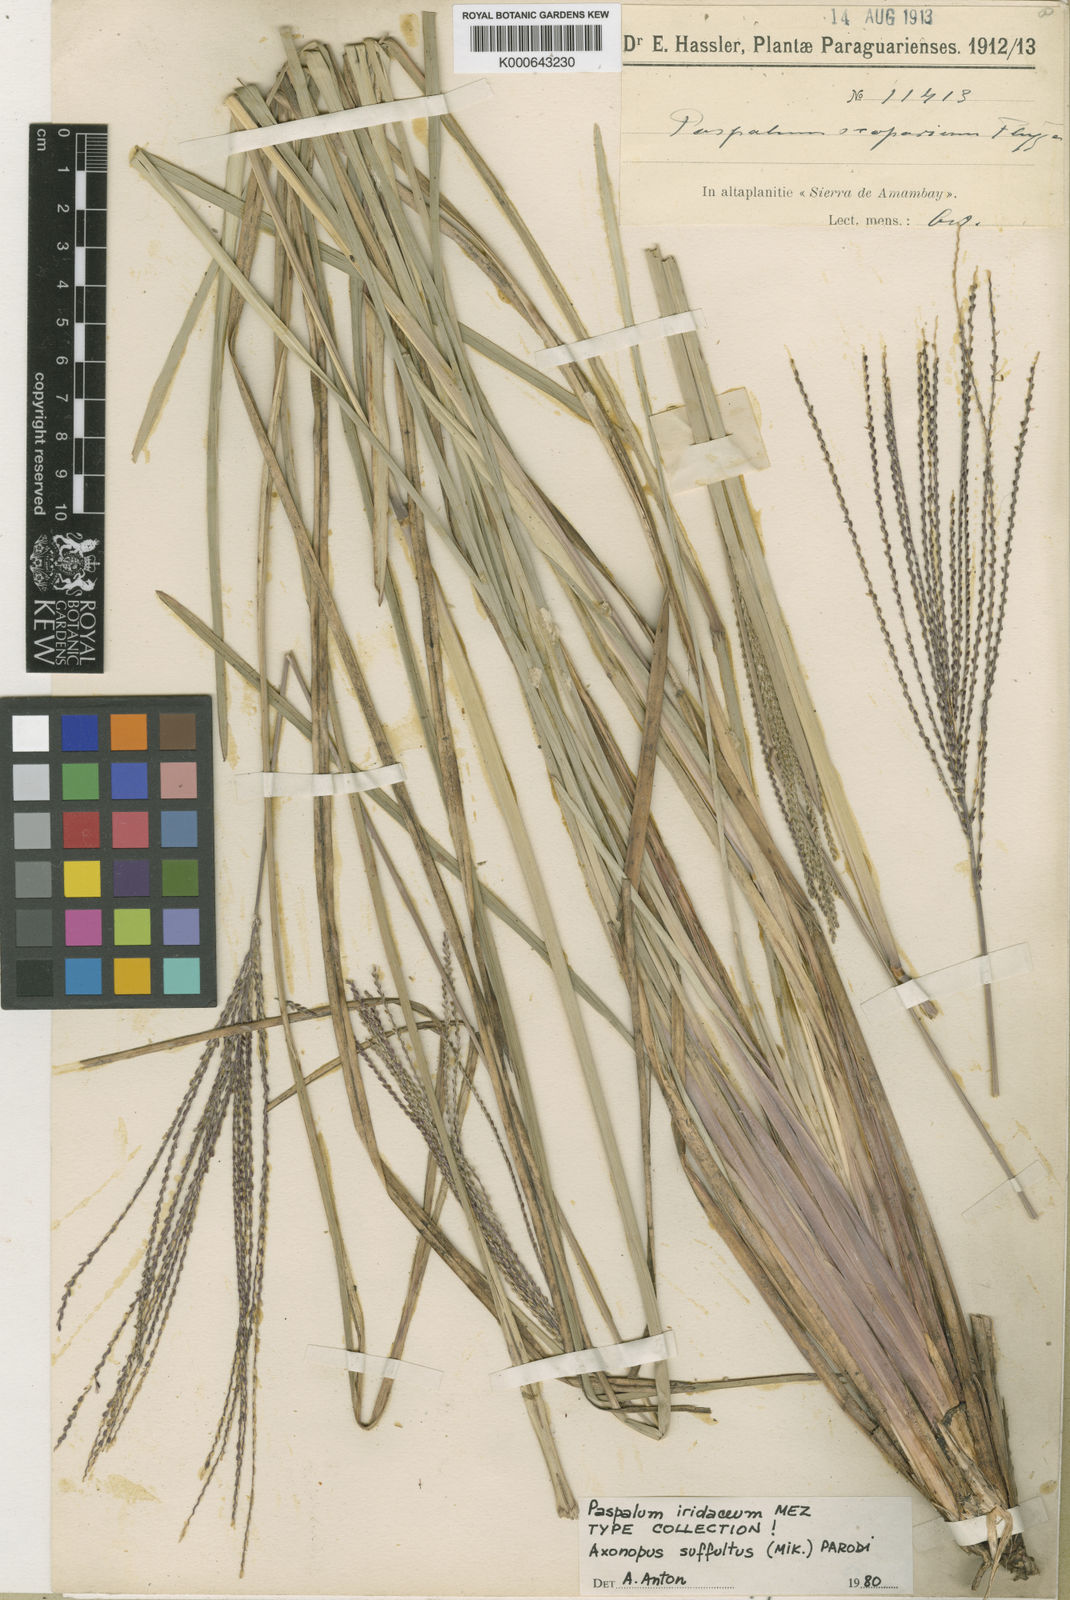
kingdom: Plantae
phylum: Tracheophyta
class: Liliopsida
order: Poales
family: Poaceae
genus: Axonopus
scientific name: Axonopus suffultus
